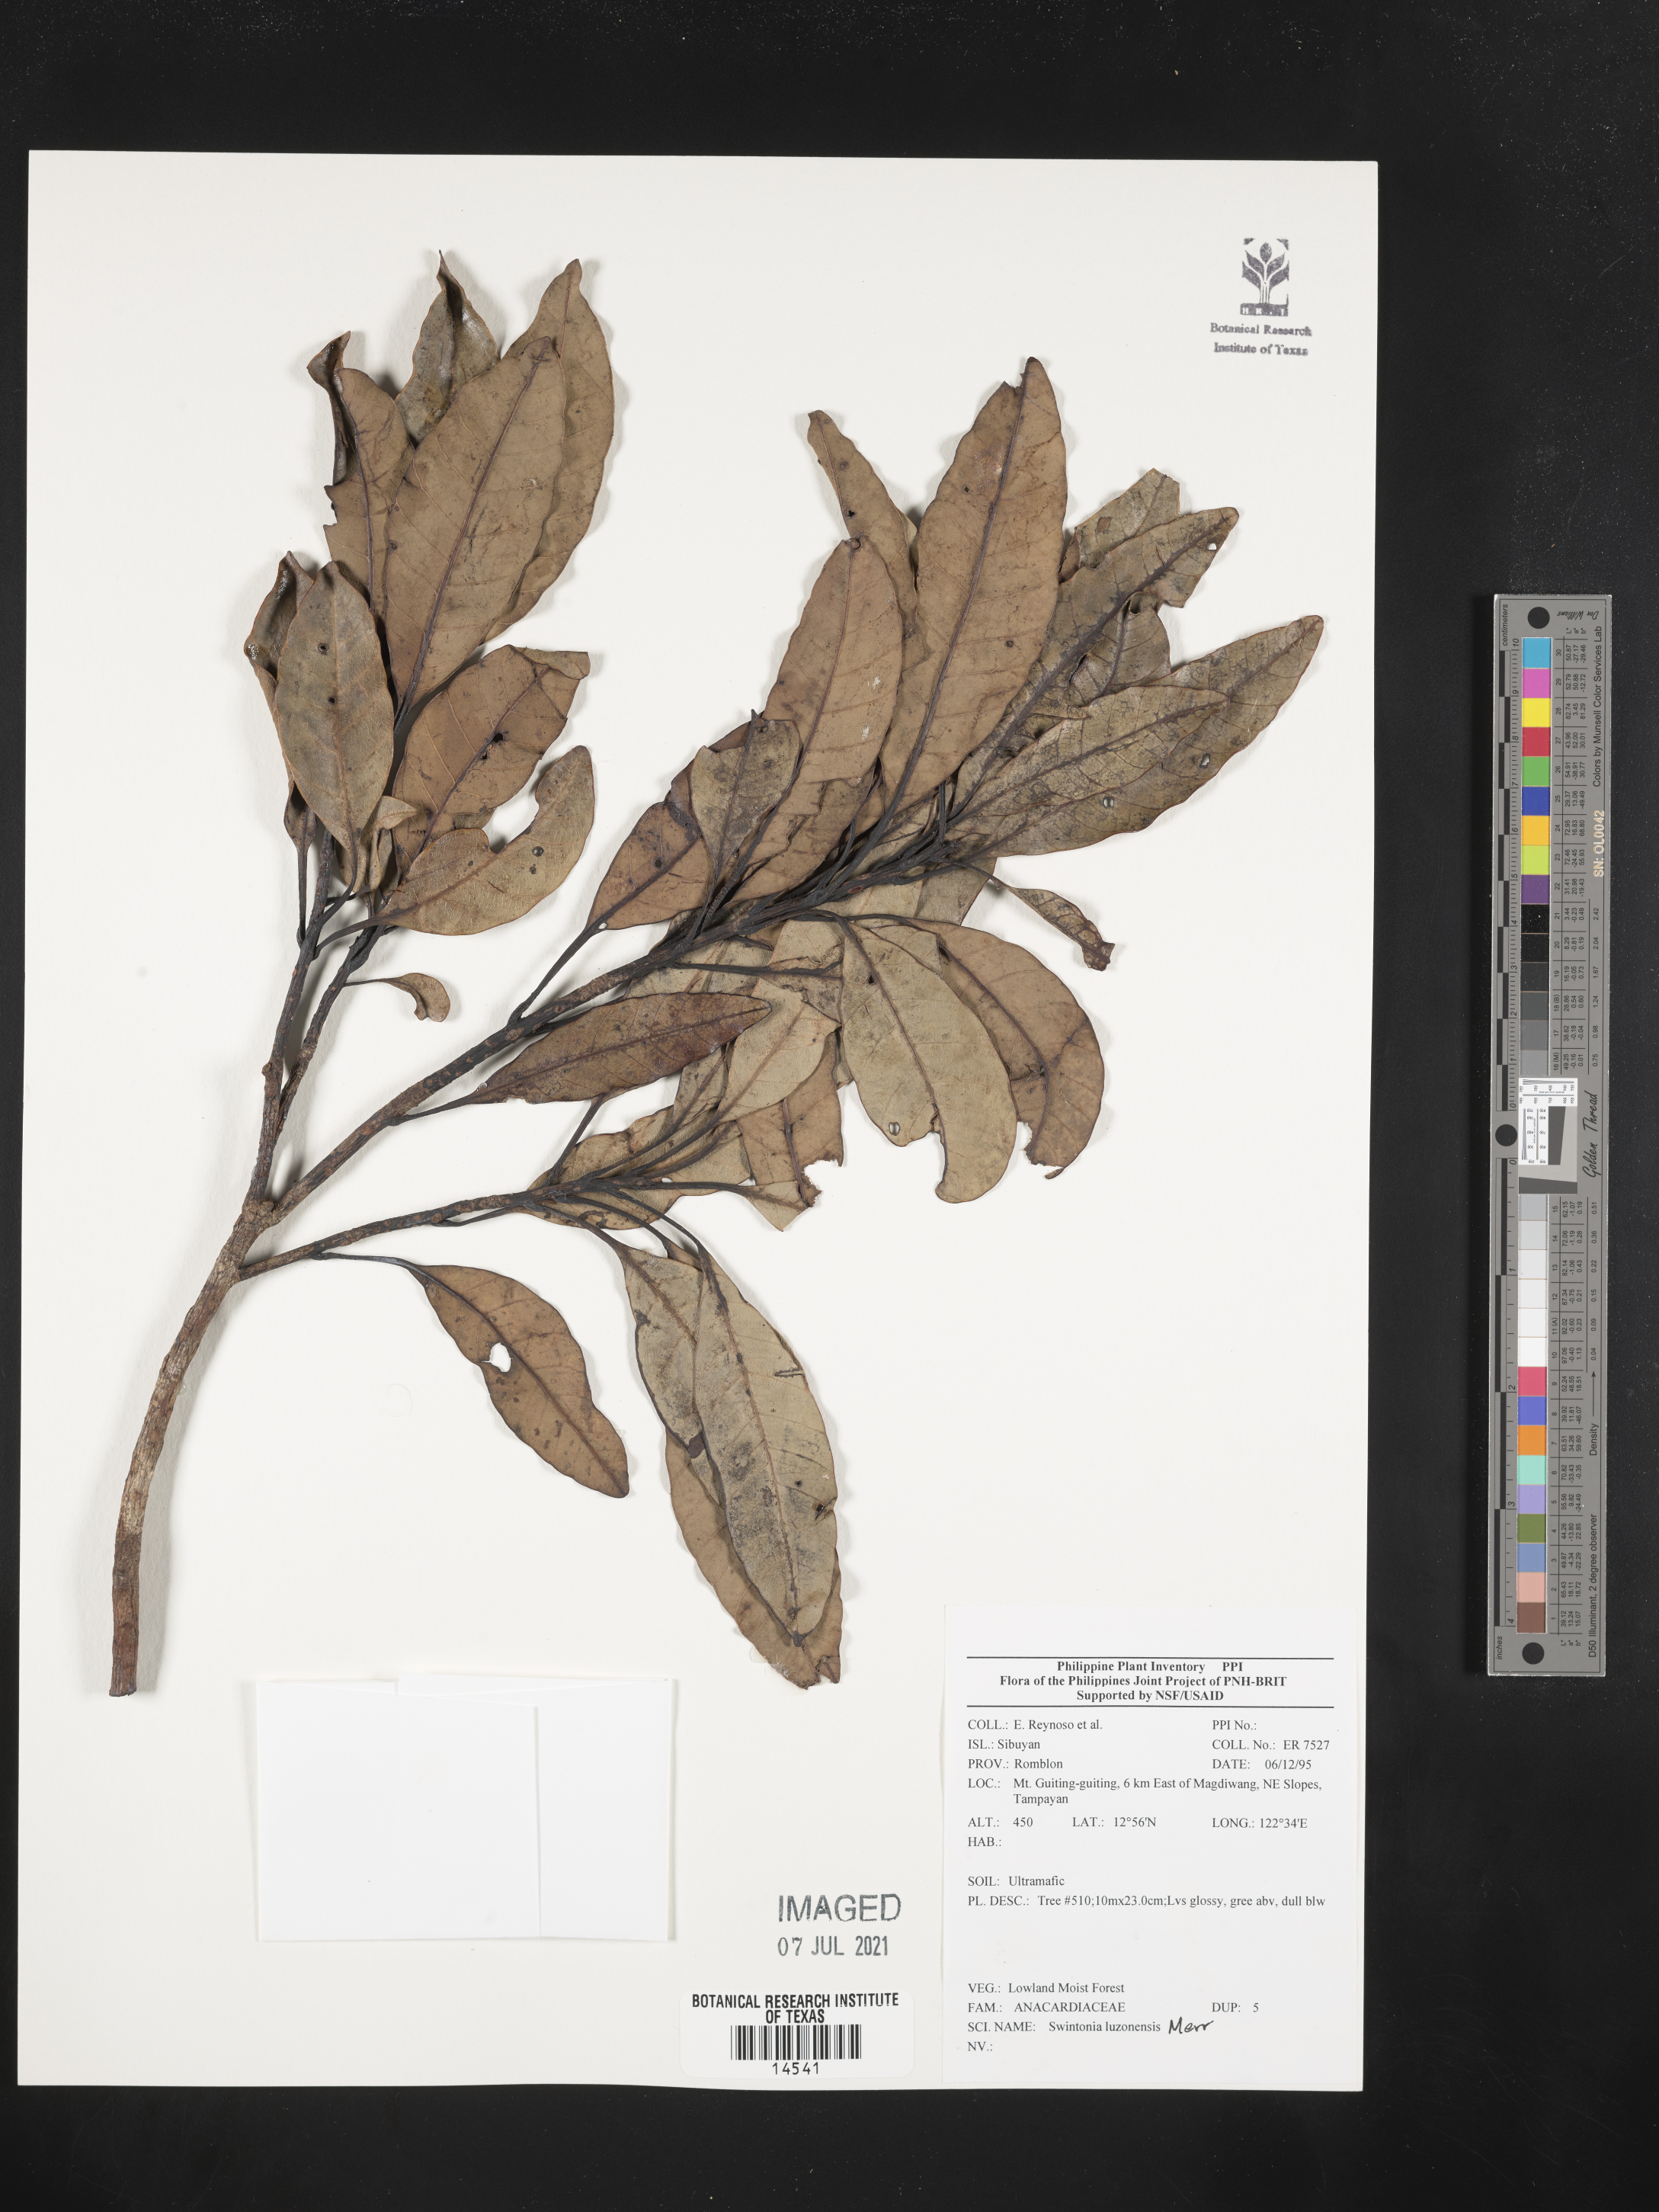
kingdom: Plantae
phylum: Tracheophyta
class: Magnoliopsida
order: Sapindales
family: Anacardiaceae
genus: Swintonia
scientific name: Swintonia acuta
